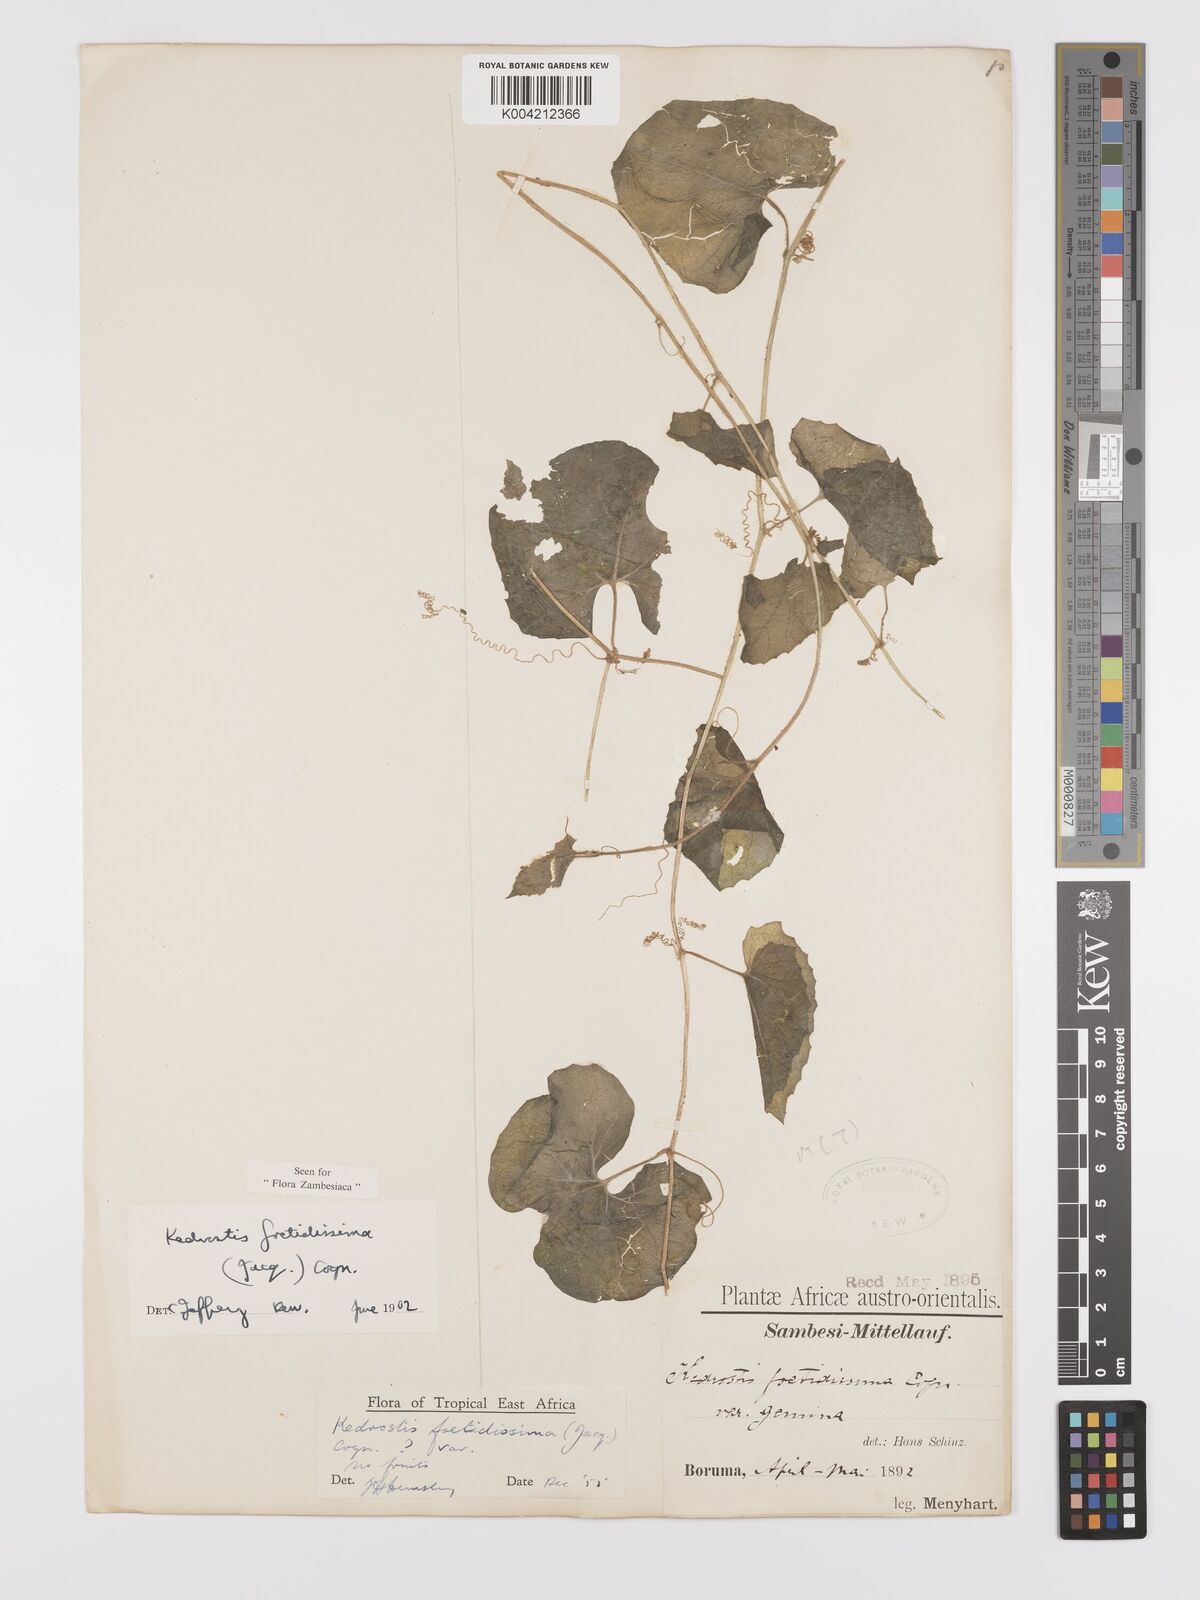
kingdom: Plantae
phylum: Tracheophyta
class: Magnoliopsida
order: Cucurbitales
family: Cucurbitaceae
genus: Kedrostis
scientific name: Kedrostis foetidissima
